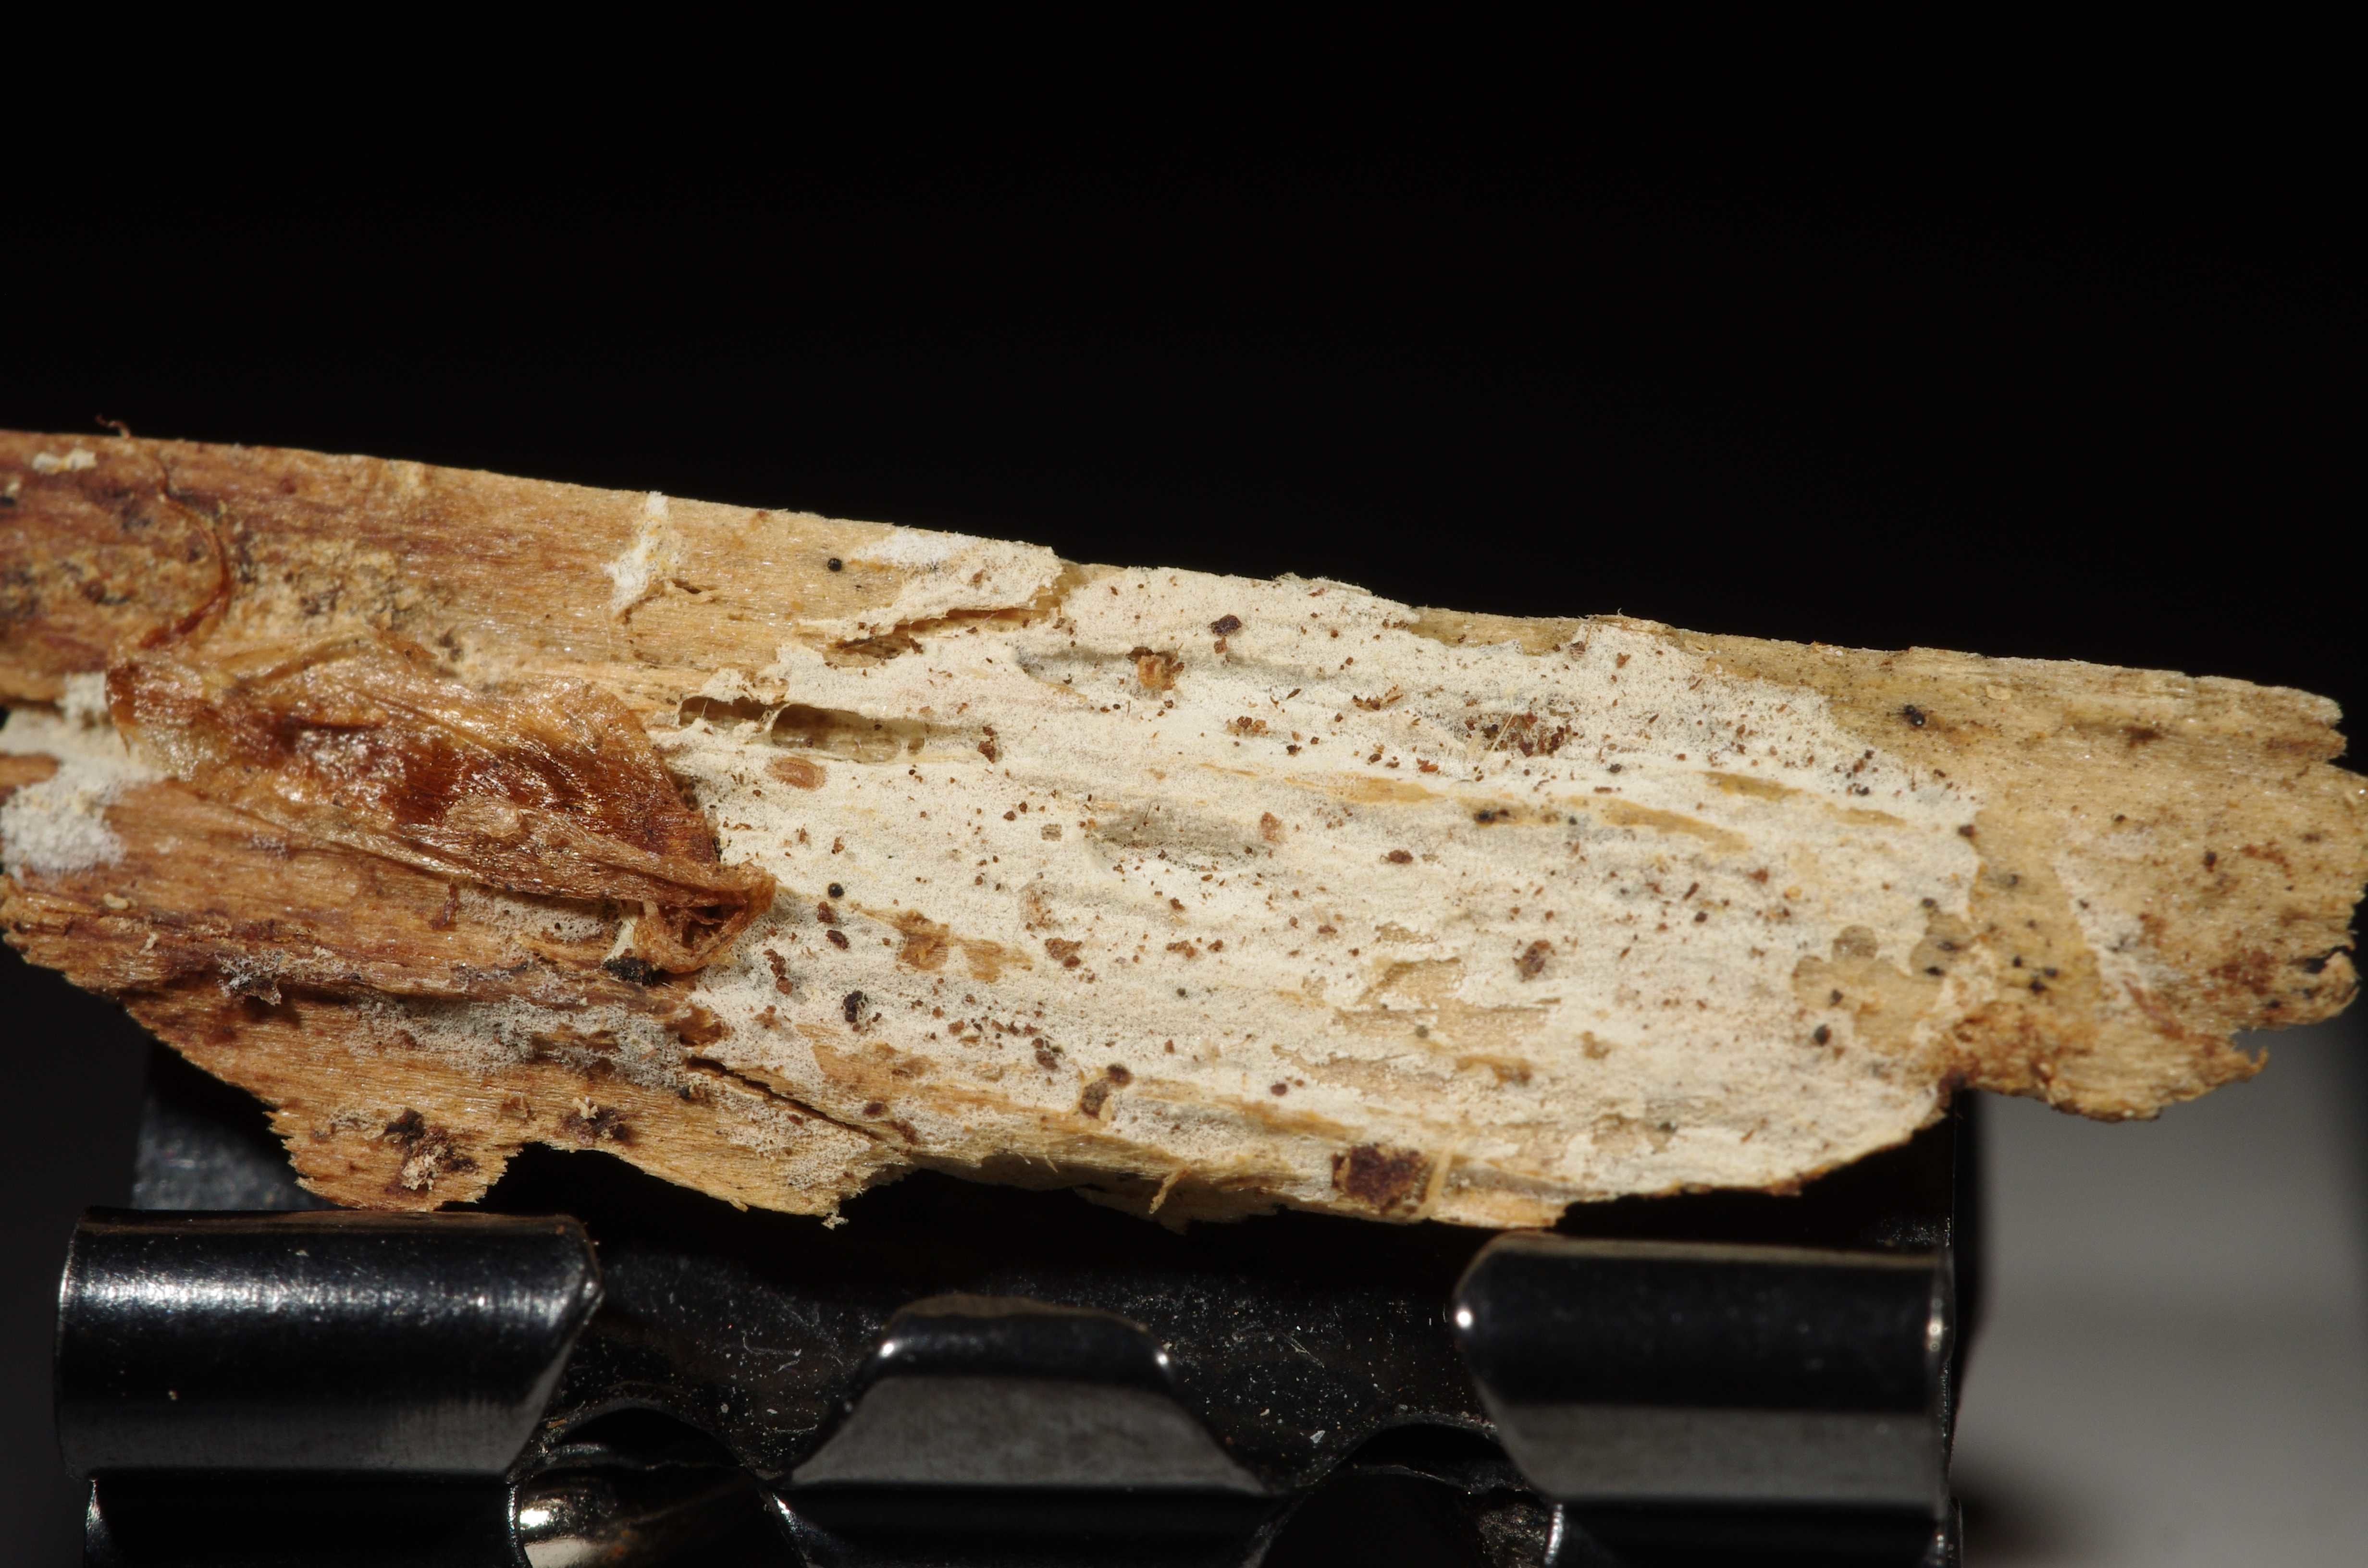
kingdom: Fungi
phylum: Basidiomycota
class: Agaricomycetes
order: Polyporales
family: Hyphodermataceae
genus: Kneiffia
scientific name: Kneiffia subalutacea
